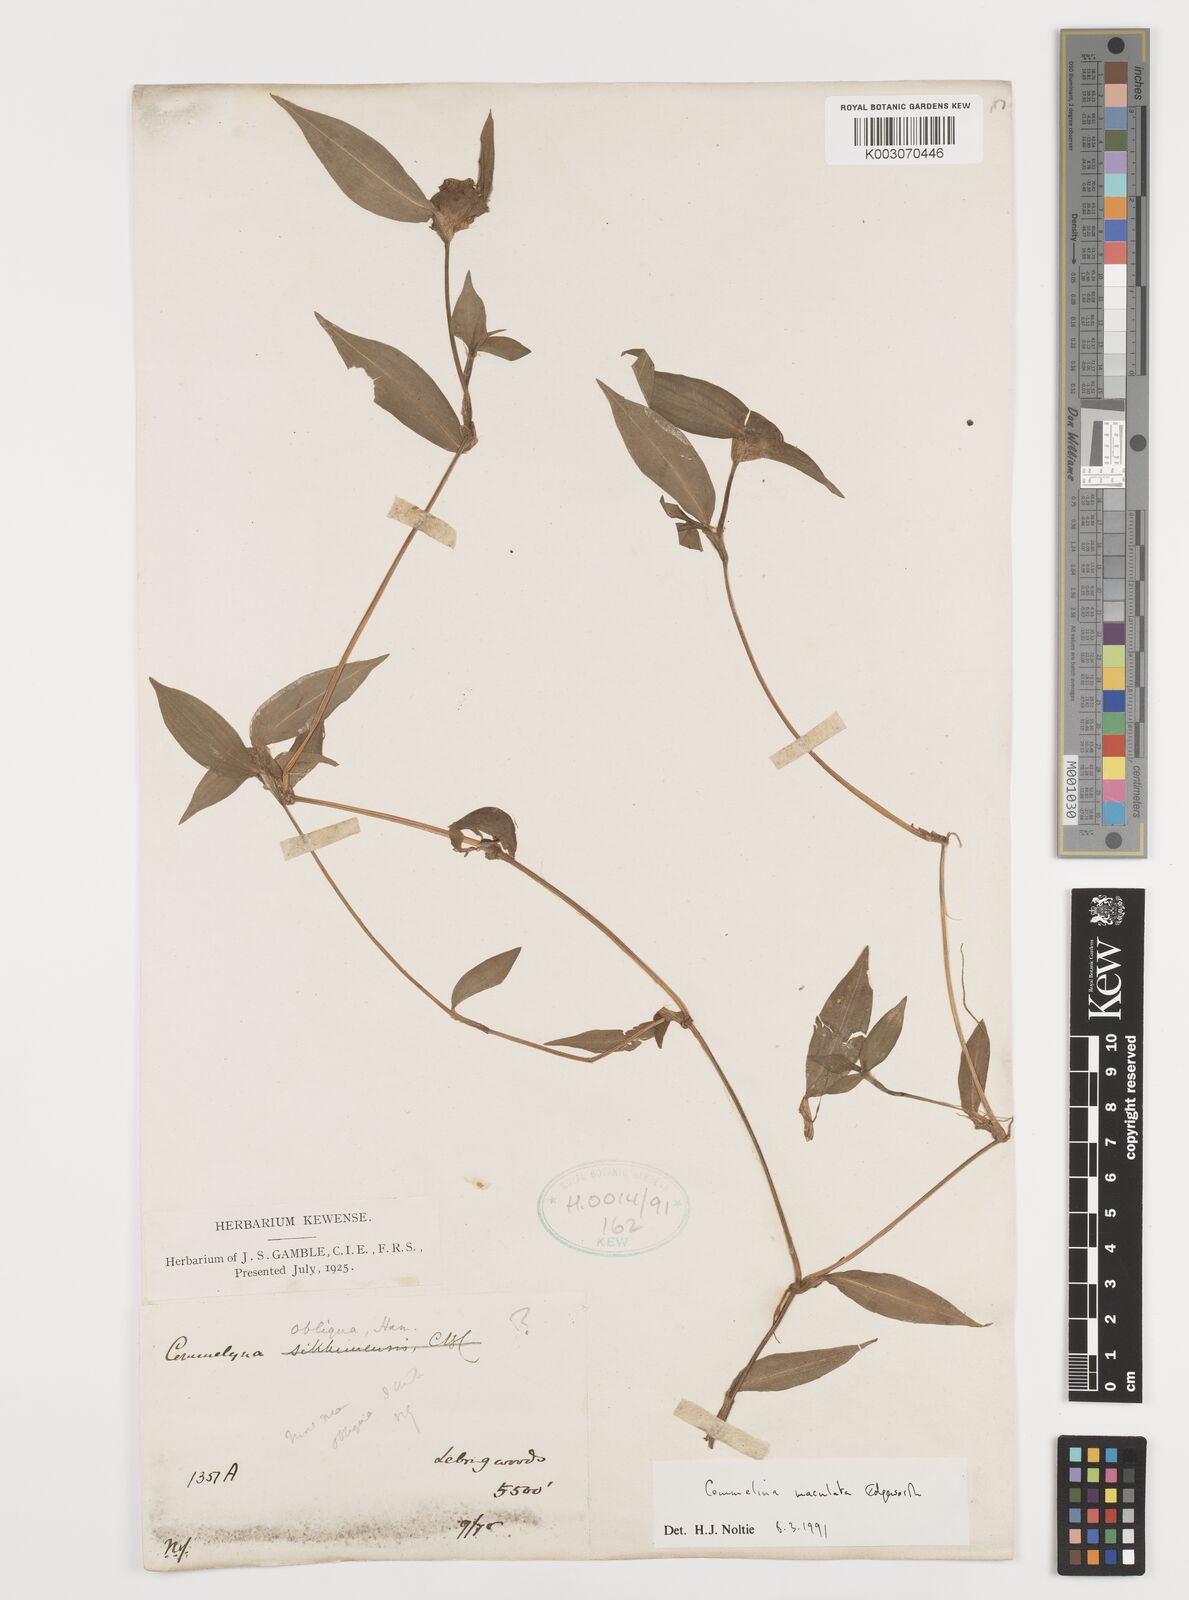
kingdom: Plantae
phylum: Tracheophyta
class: Liliopsida
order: Commelinales
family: Commelinaceae
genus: Commelina
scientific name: Commelina maculata
